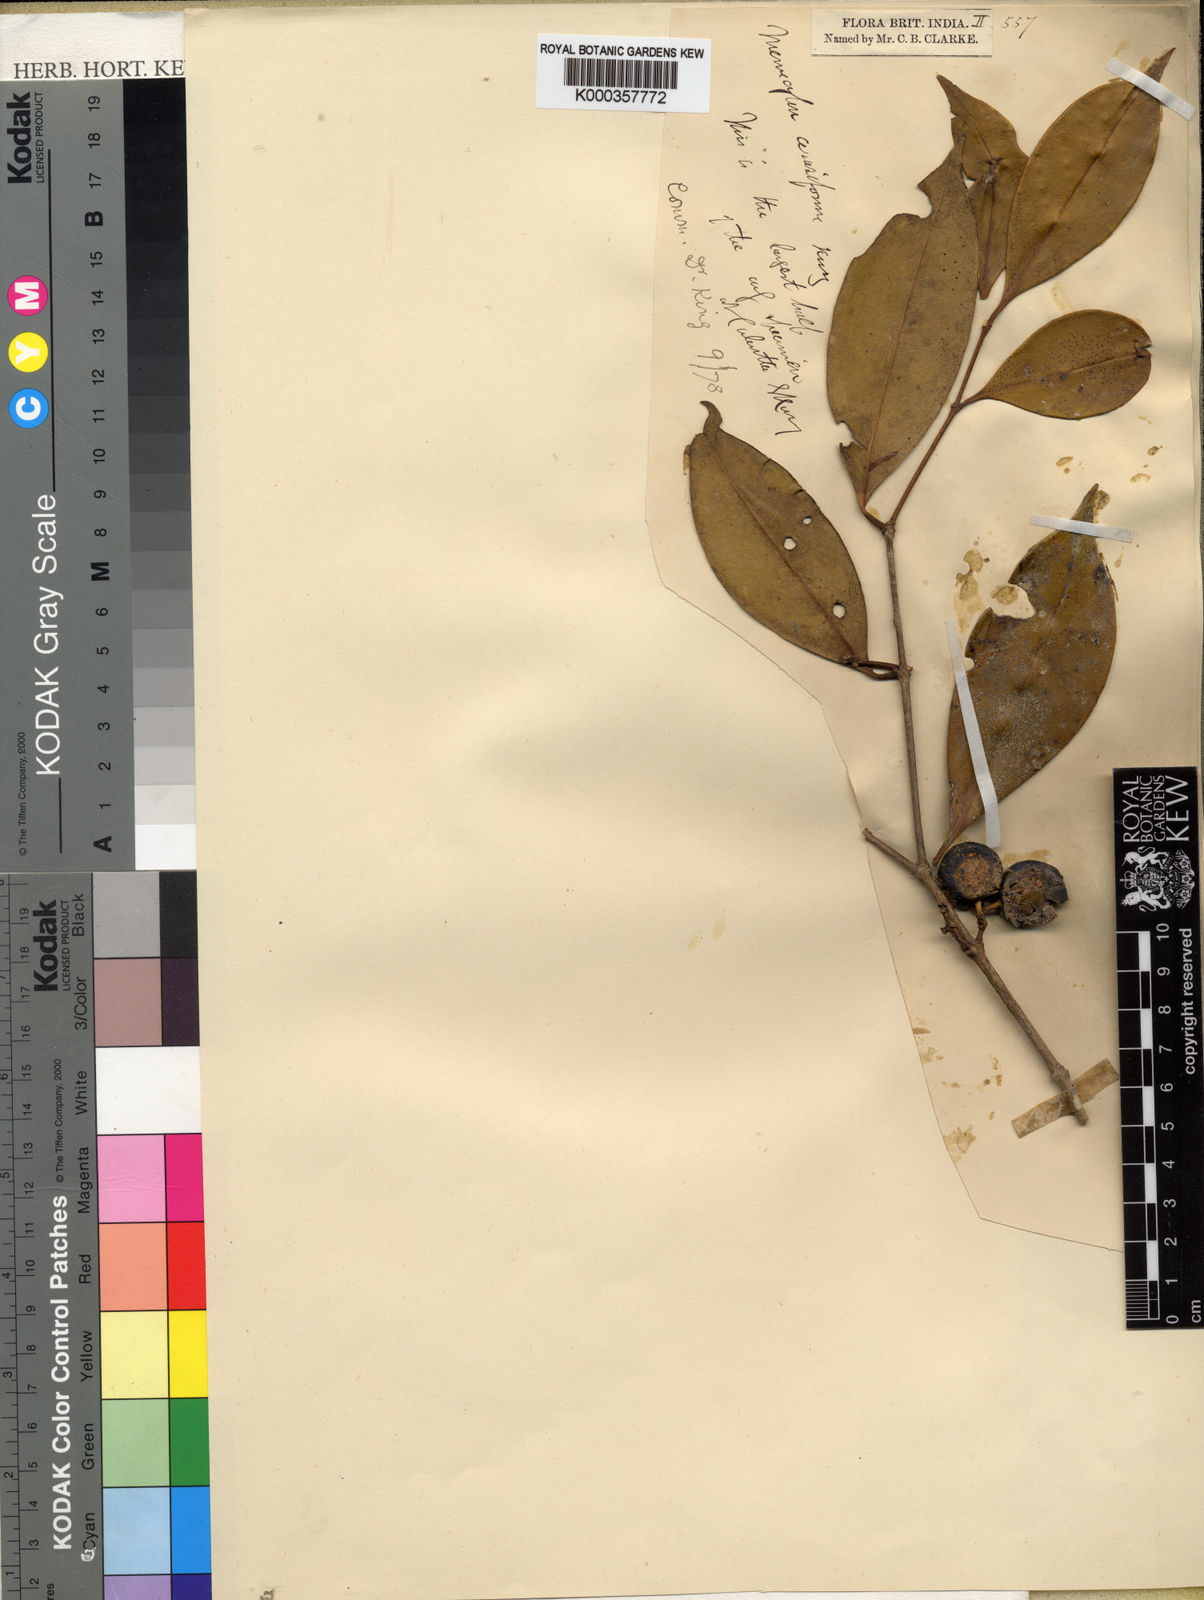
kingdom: Plantae
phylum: Tracheophyta
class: Magnoliopsida
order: Myrtales
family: Melastomataceae
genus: Memecylon
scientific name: Memecylon cerasiforme
